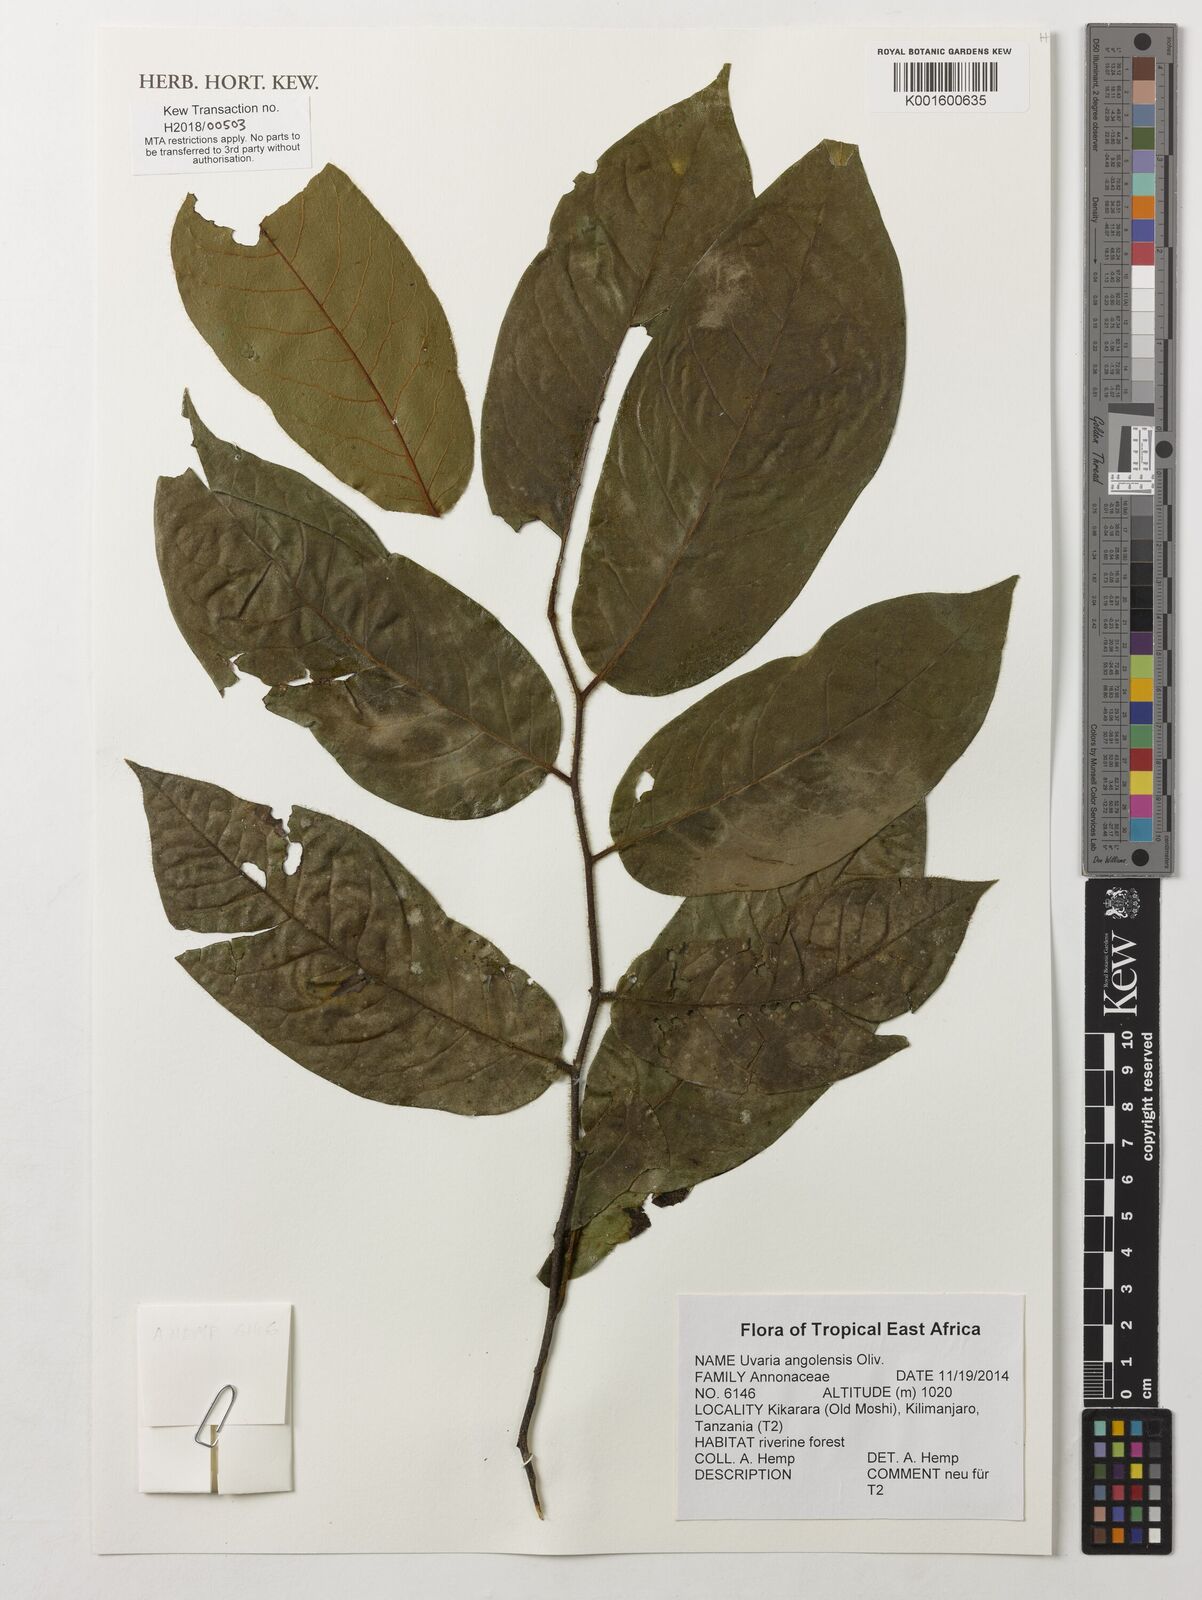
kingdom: Plantae
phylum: Tracheophyta
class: Magnoliopsida
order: Magnoliales
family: Annonaceae
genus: Uvaria
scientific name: Uvaria angolensis
